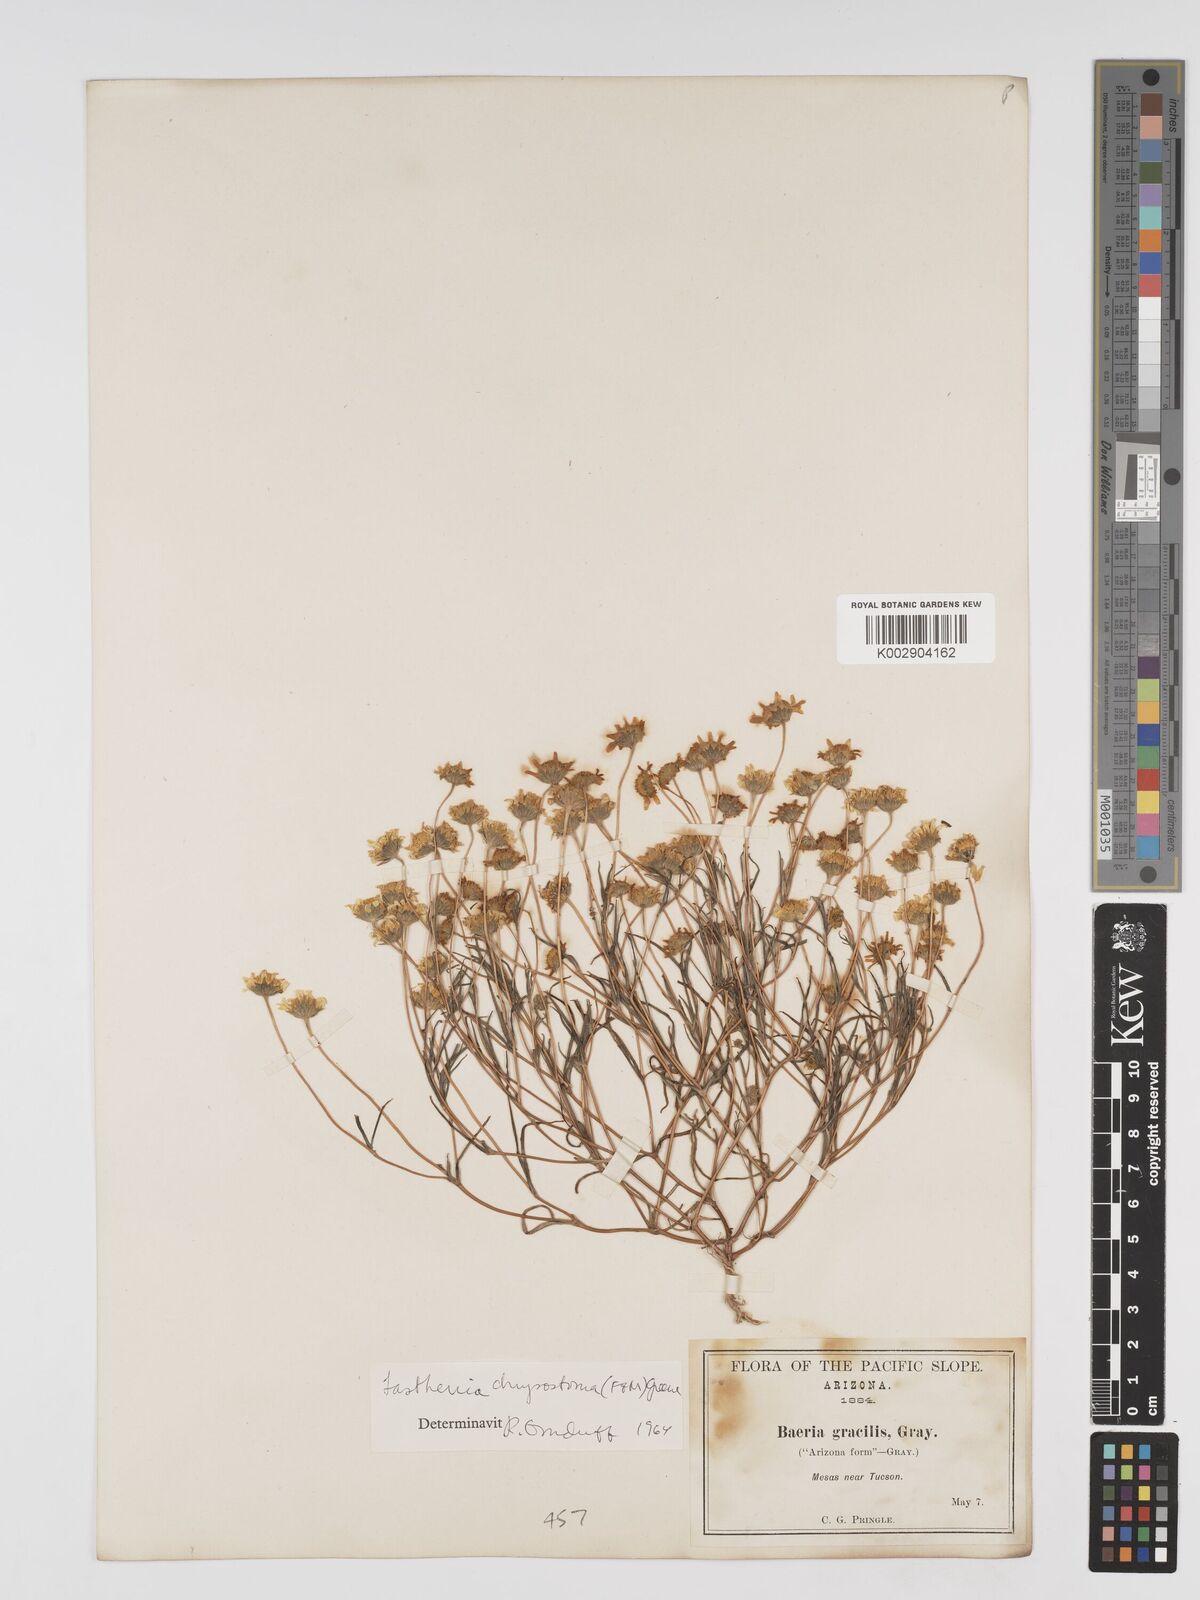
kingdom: Plantae
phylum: Tracheophyta
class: Magnoliopsida
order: Asterales
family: Asteraceae
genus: Lasthenia
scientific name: Lasthenia californica
